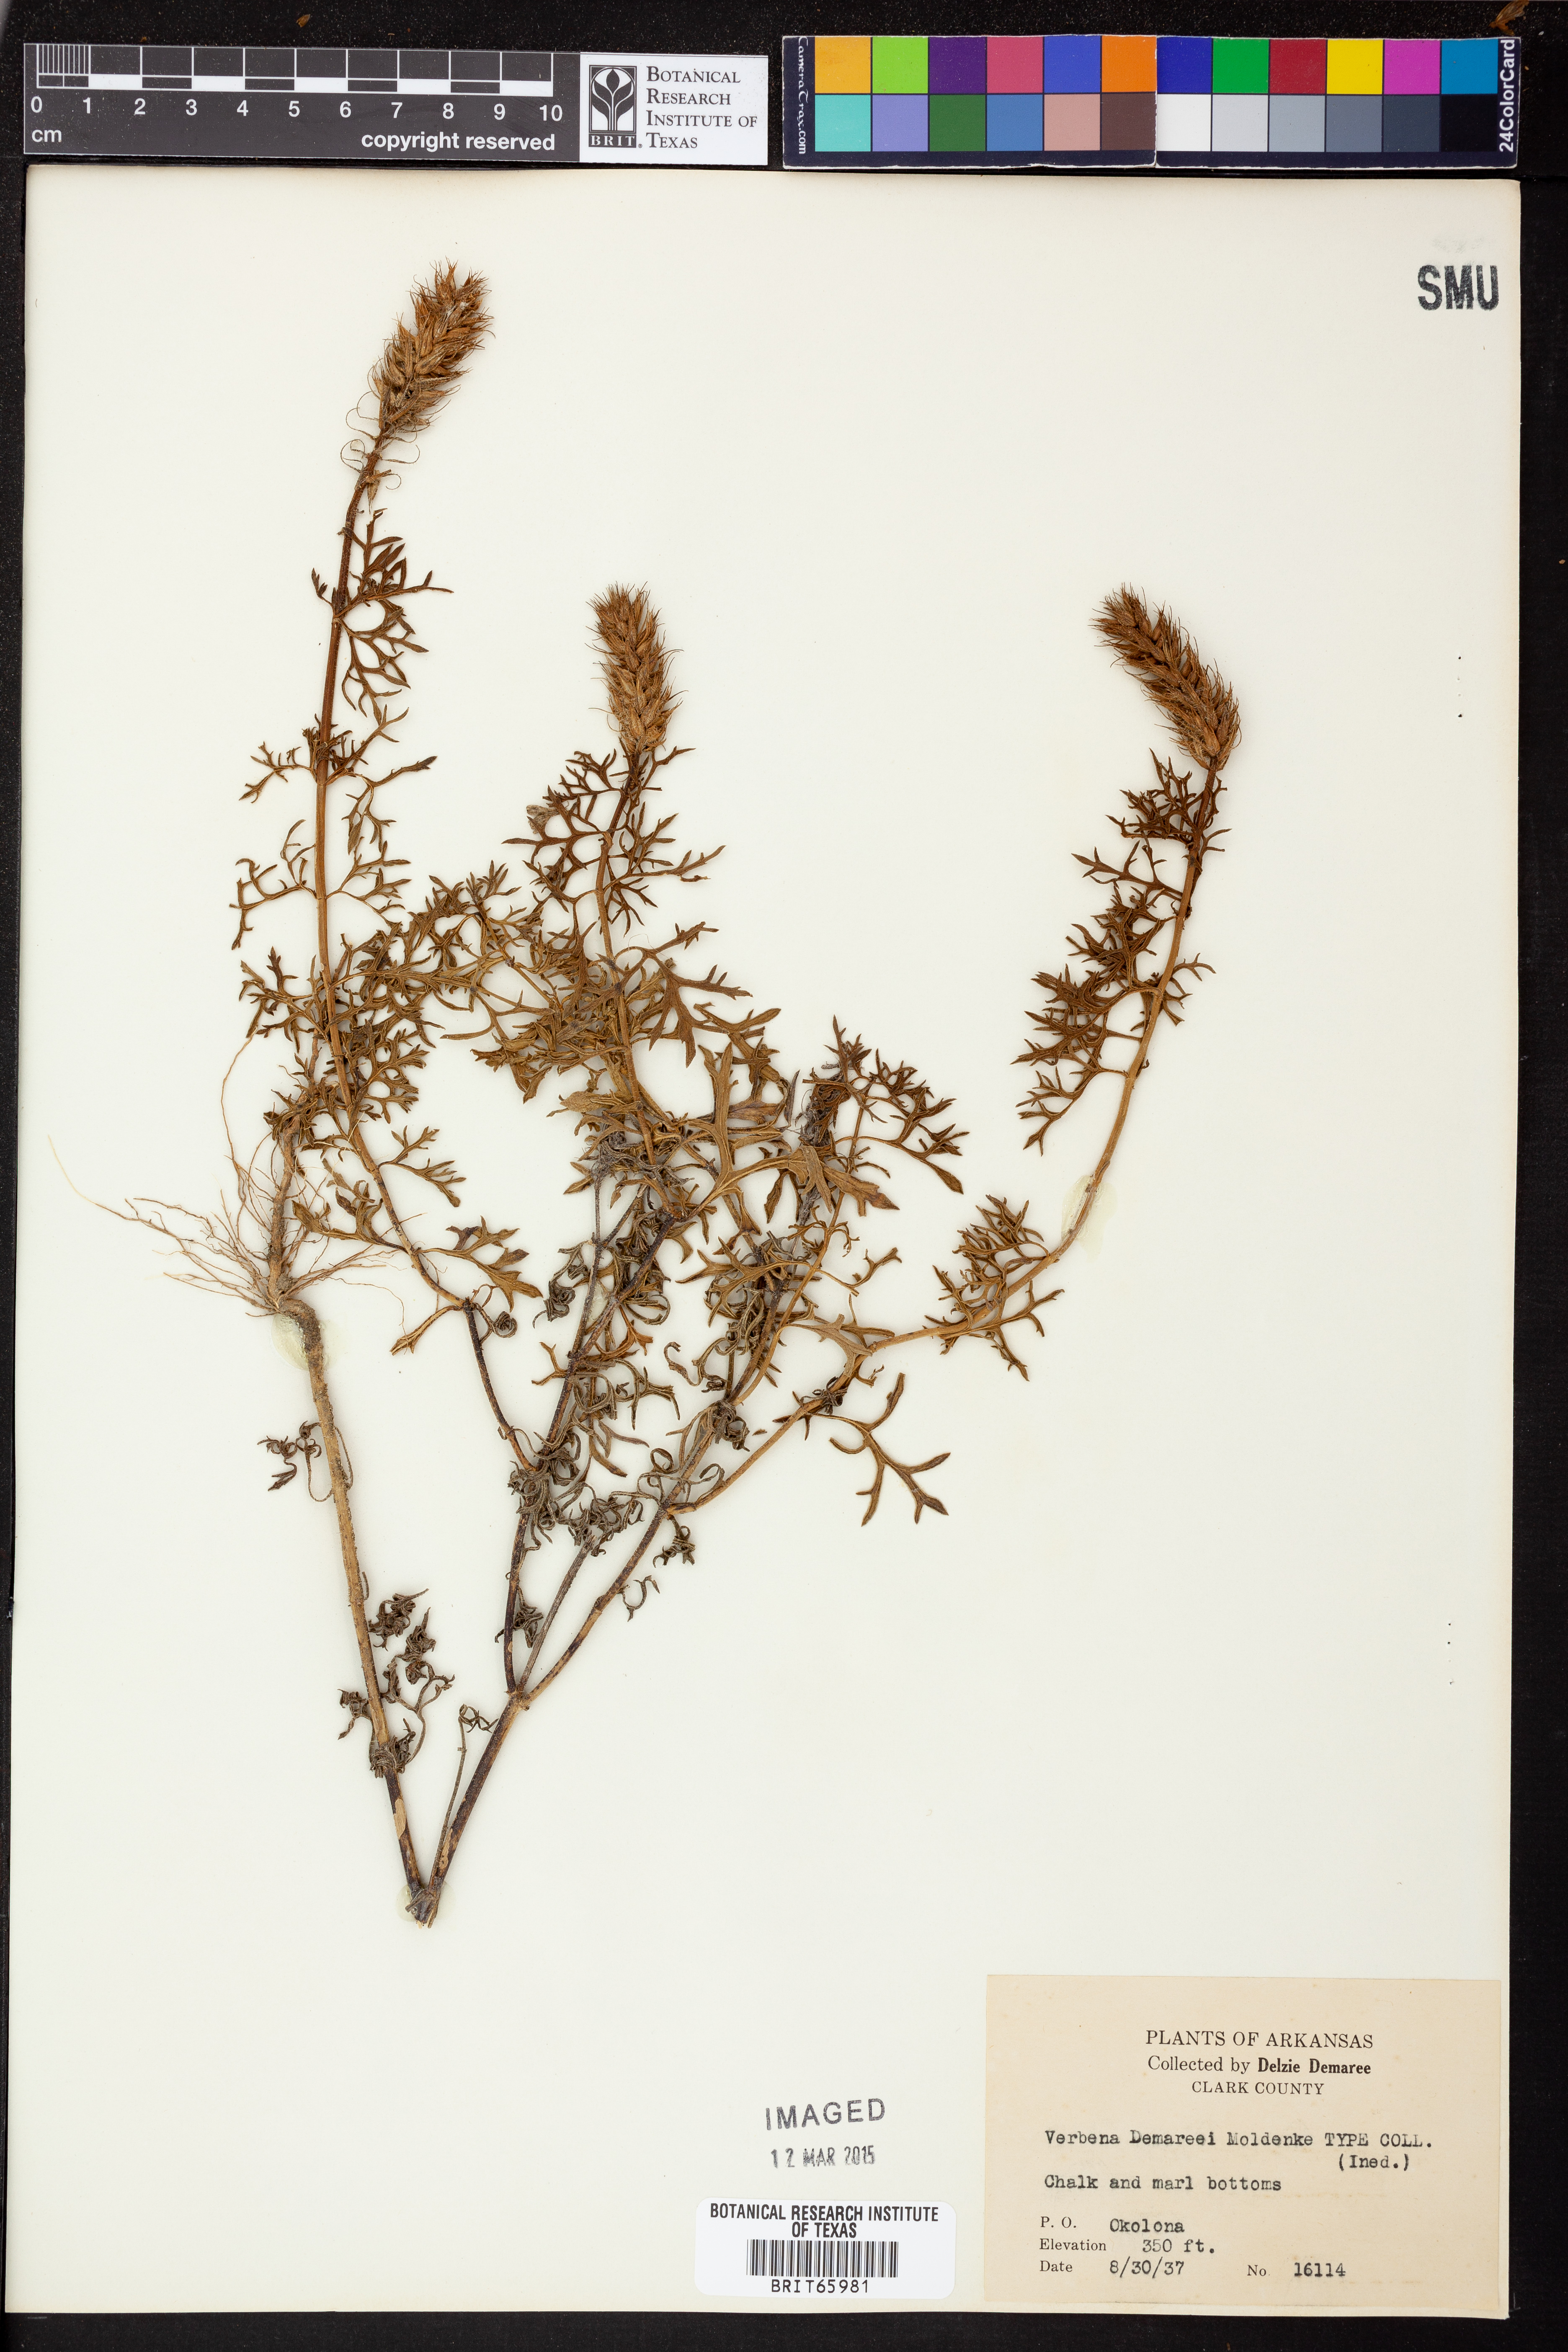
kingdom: Plantae
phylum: Tracheophyta
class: Magnoliopsida
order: Lamiales
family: Verbenaceae
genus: Verbena
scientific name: Verbena bipinnatifida
